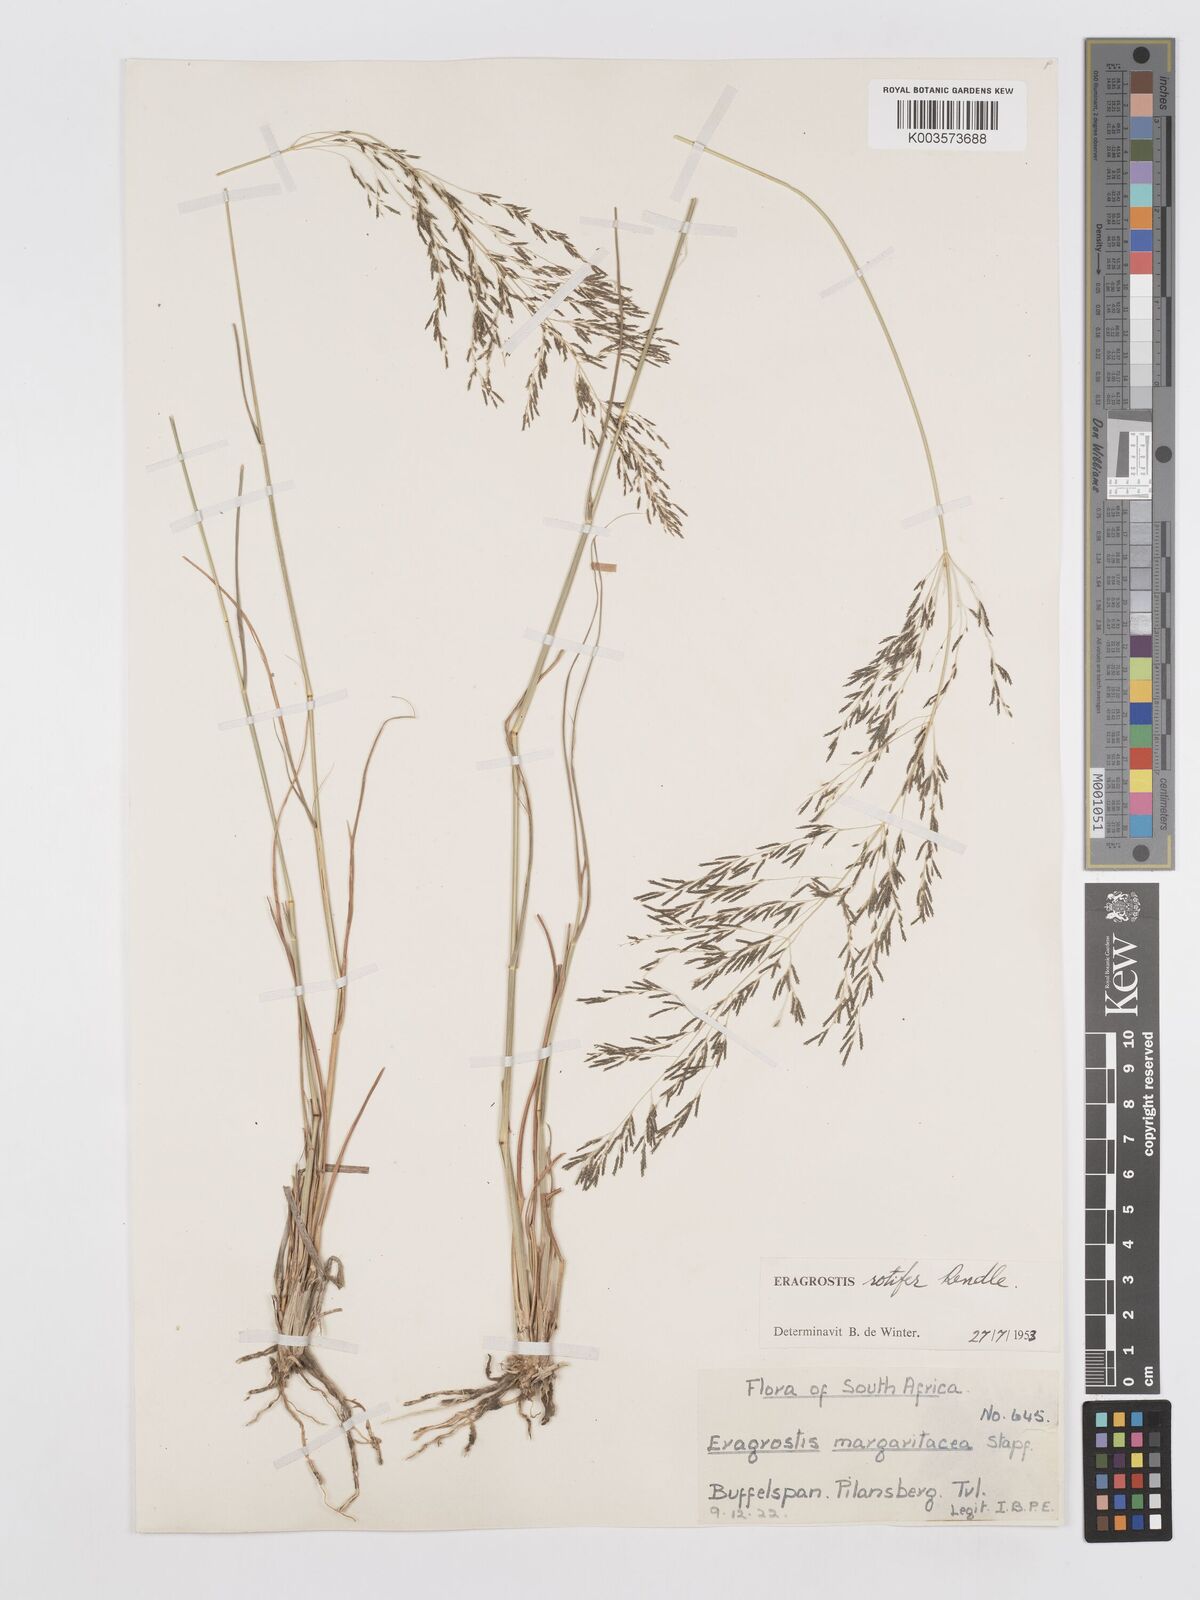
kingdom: Plantae
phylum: Tracheophyta
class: Liliopsida
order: Poales
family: Poaceae
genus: Eragrostis
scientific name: Eragrostis rotifer
